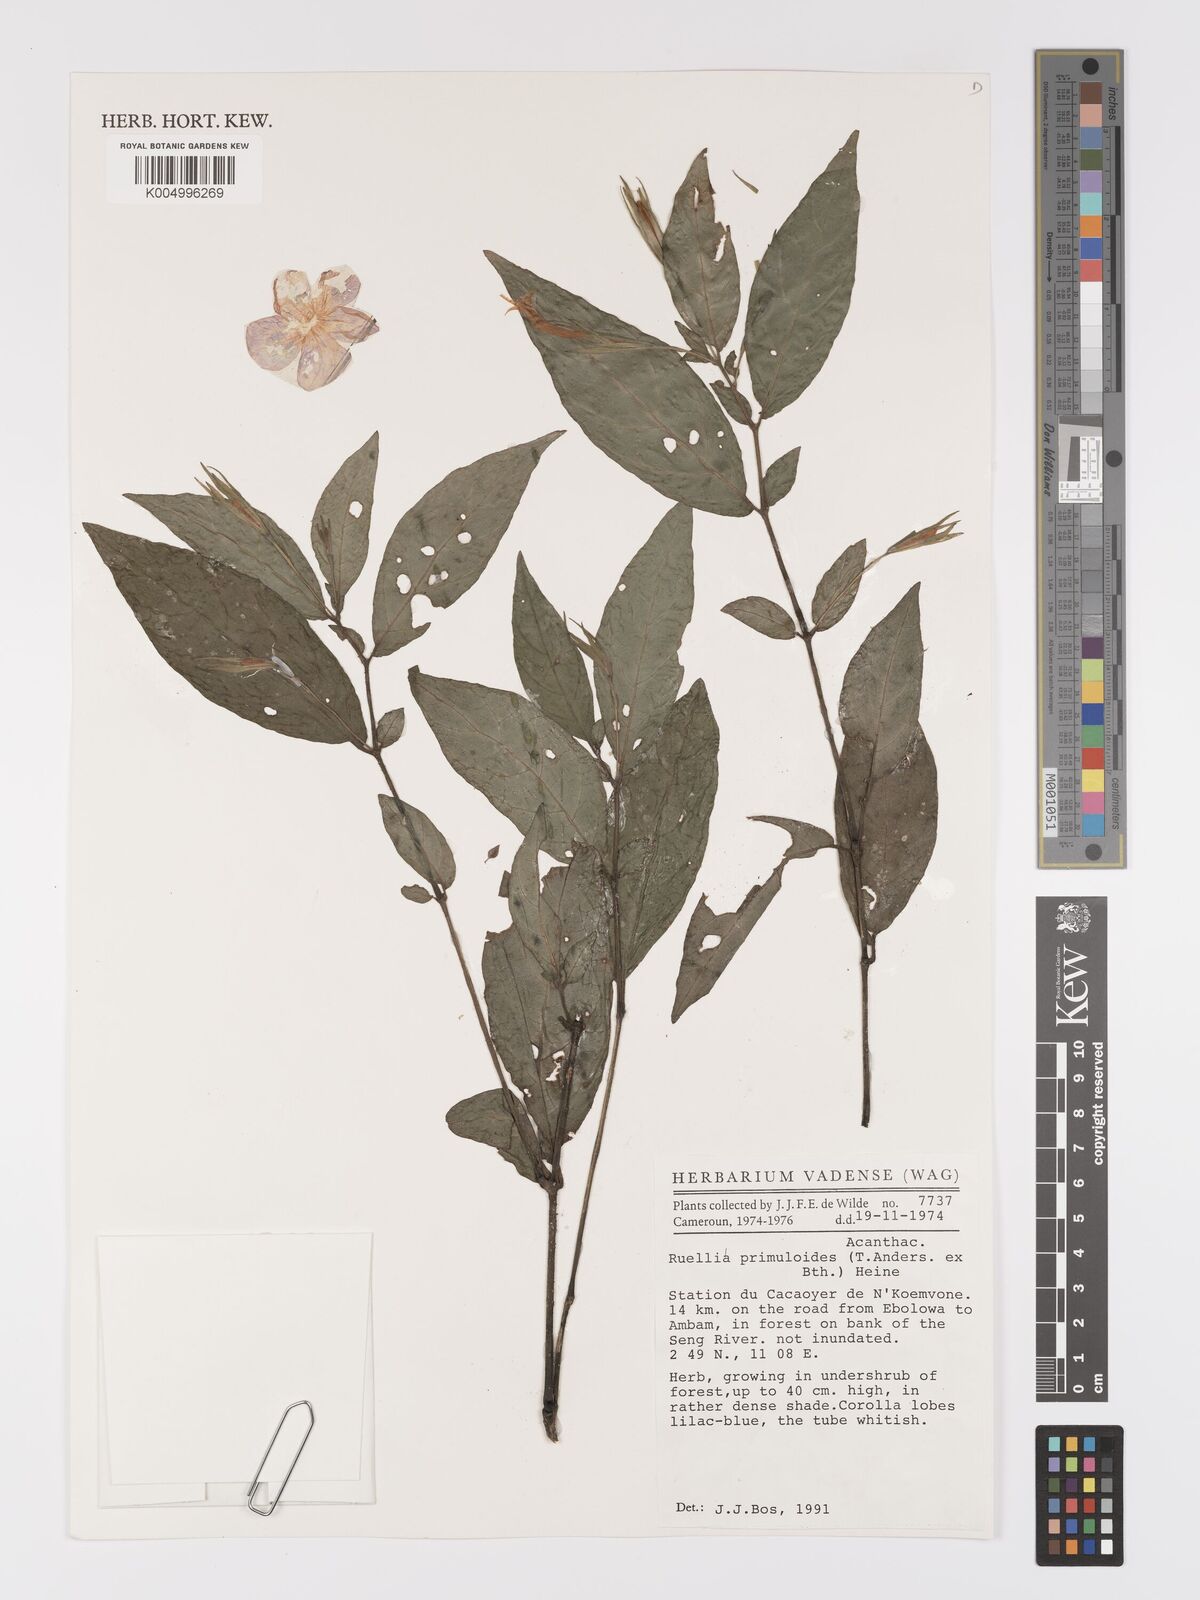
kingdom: Plantae
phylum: Tracheophyta
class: Magnoliopsida
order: Lamiales
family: Acanthaceae
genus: Ruellia
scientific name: Ruellia primuloides
